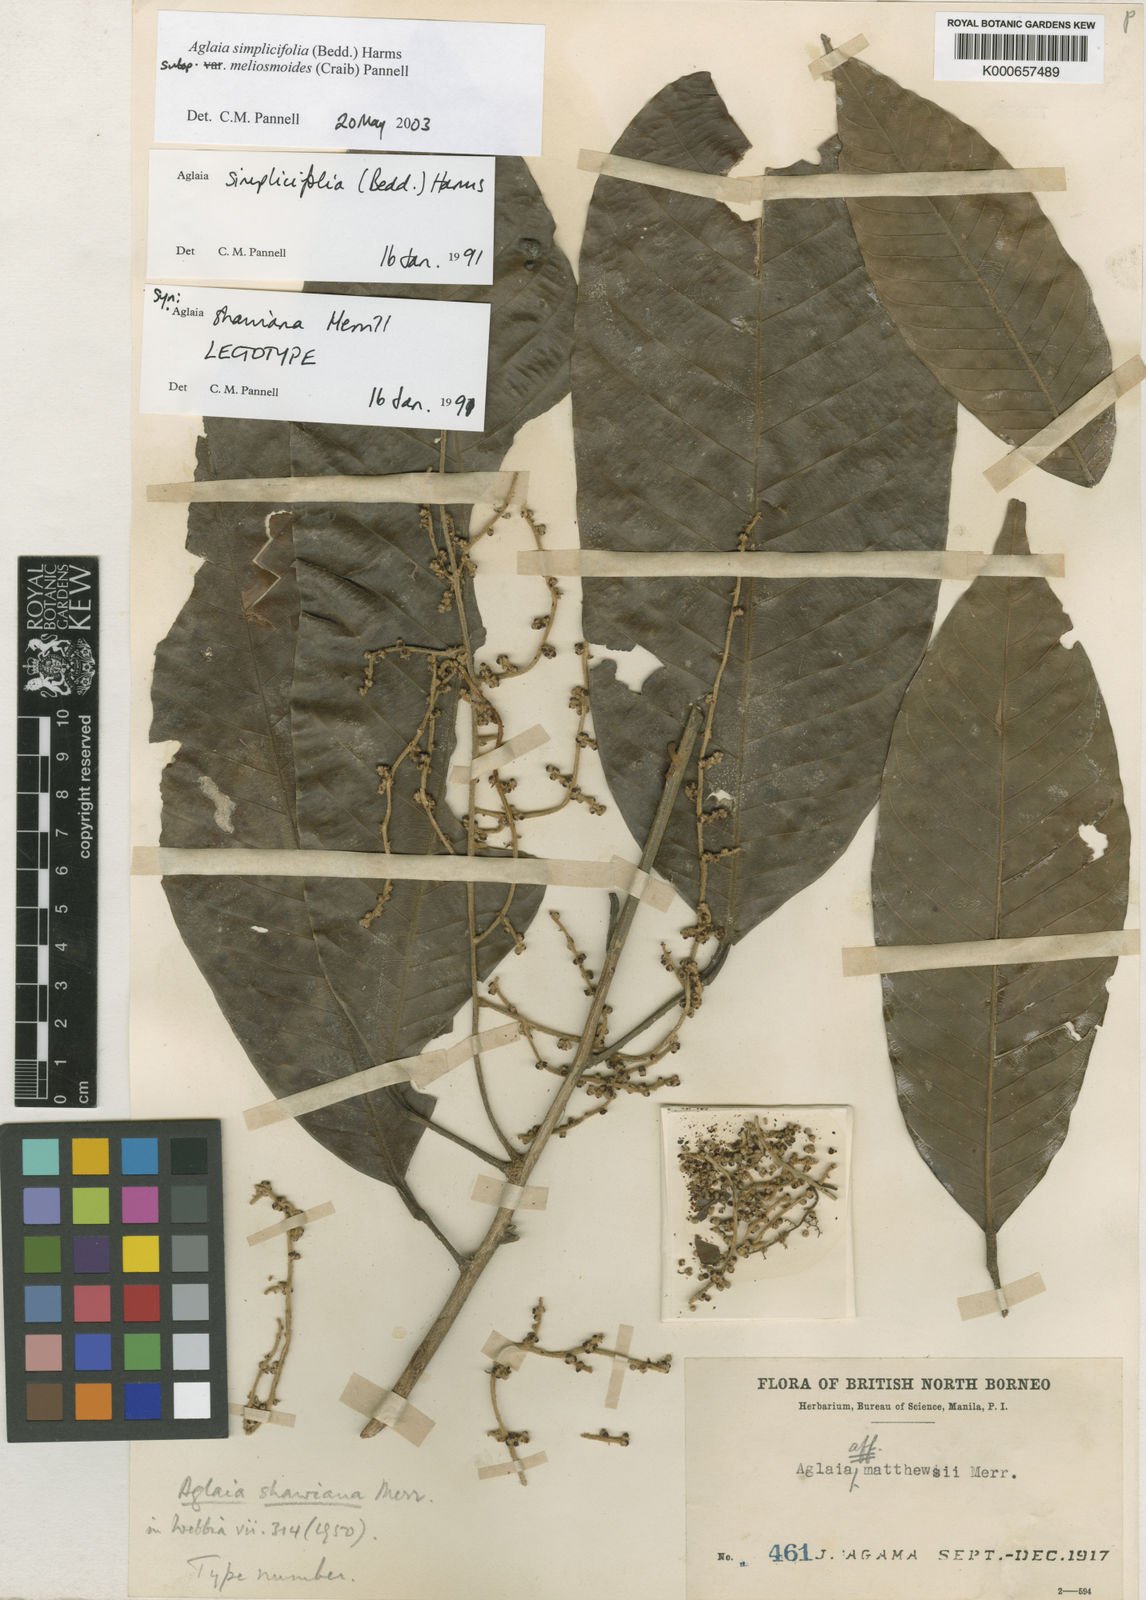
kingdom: Plantae
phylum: Tracheophyta
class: Magnoliopsida
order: Sapindales
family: Meliaceae
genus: Aglaia
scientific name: Aglaia simplicifolia
